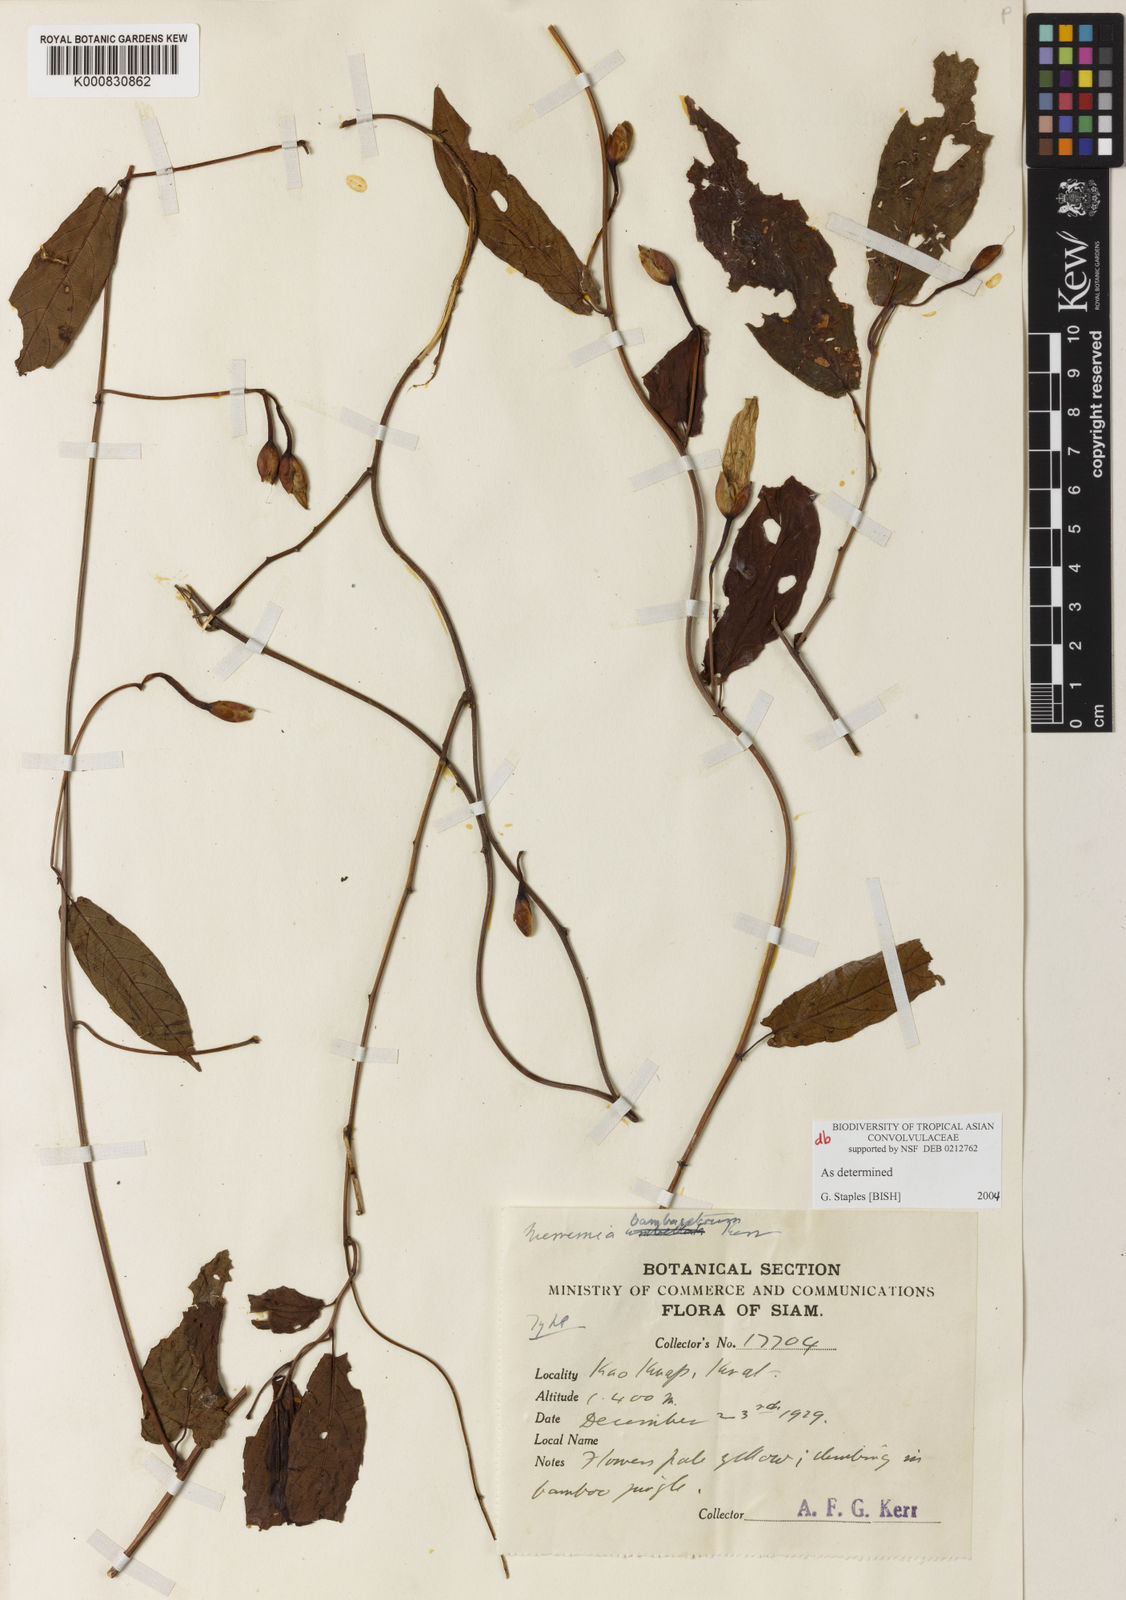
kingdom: Plantae
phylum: Tracheophyta
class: Magnoliopsida
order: Solanales
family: Convolvulaceae
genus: Camonea
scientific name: Camonea
